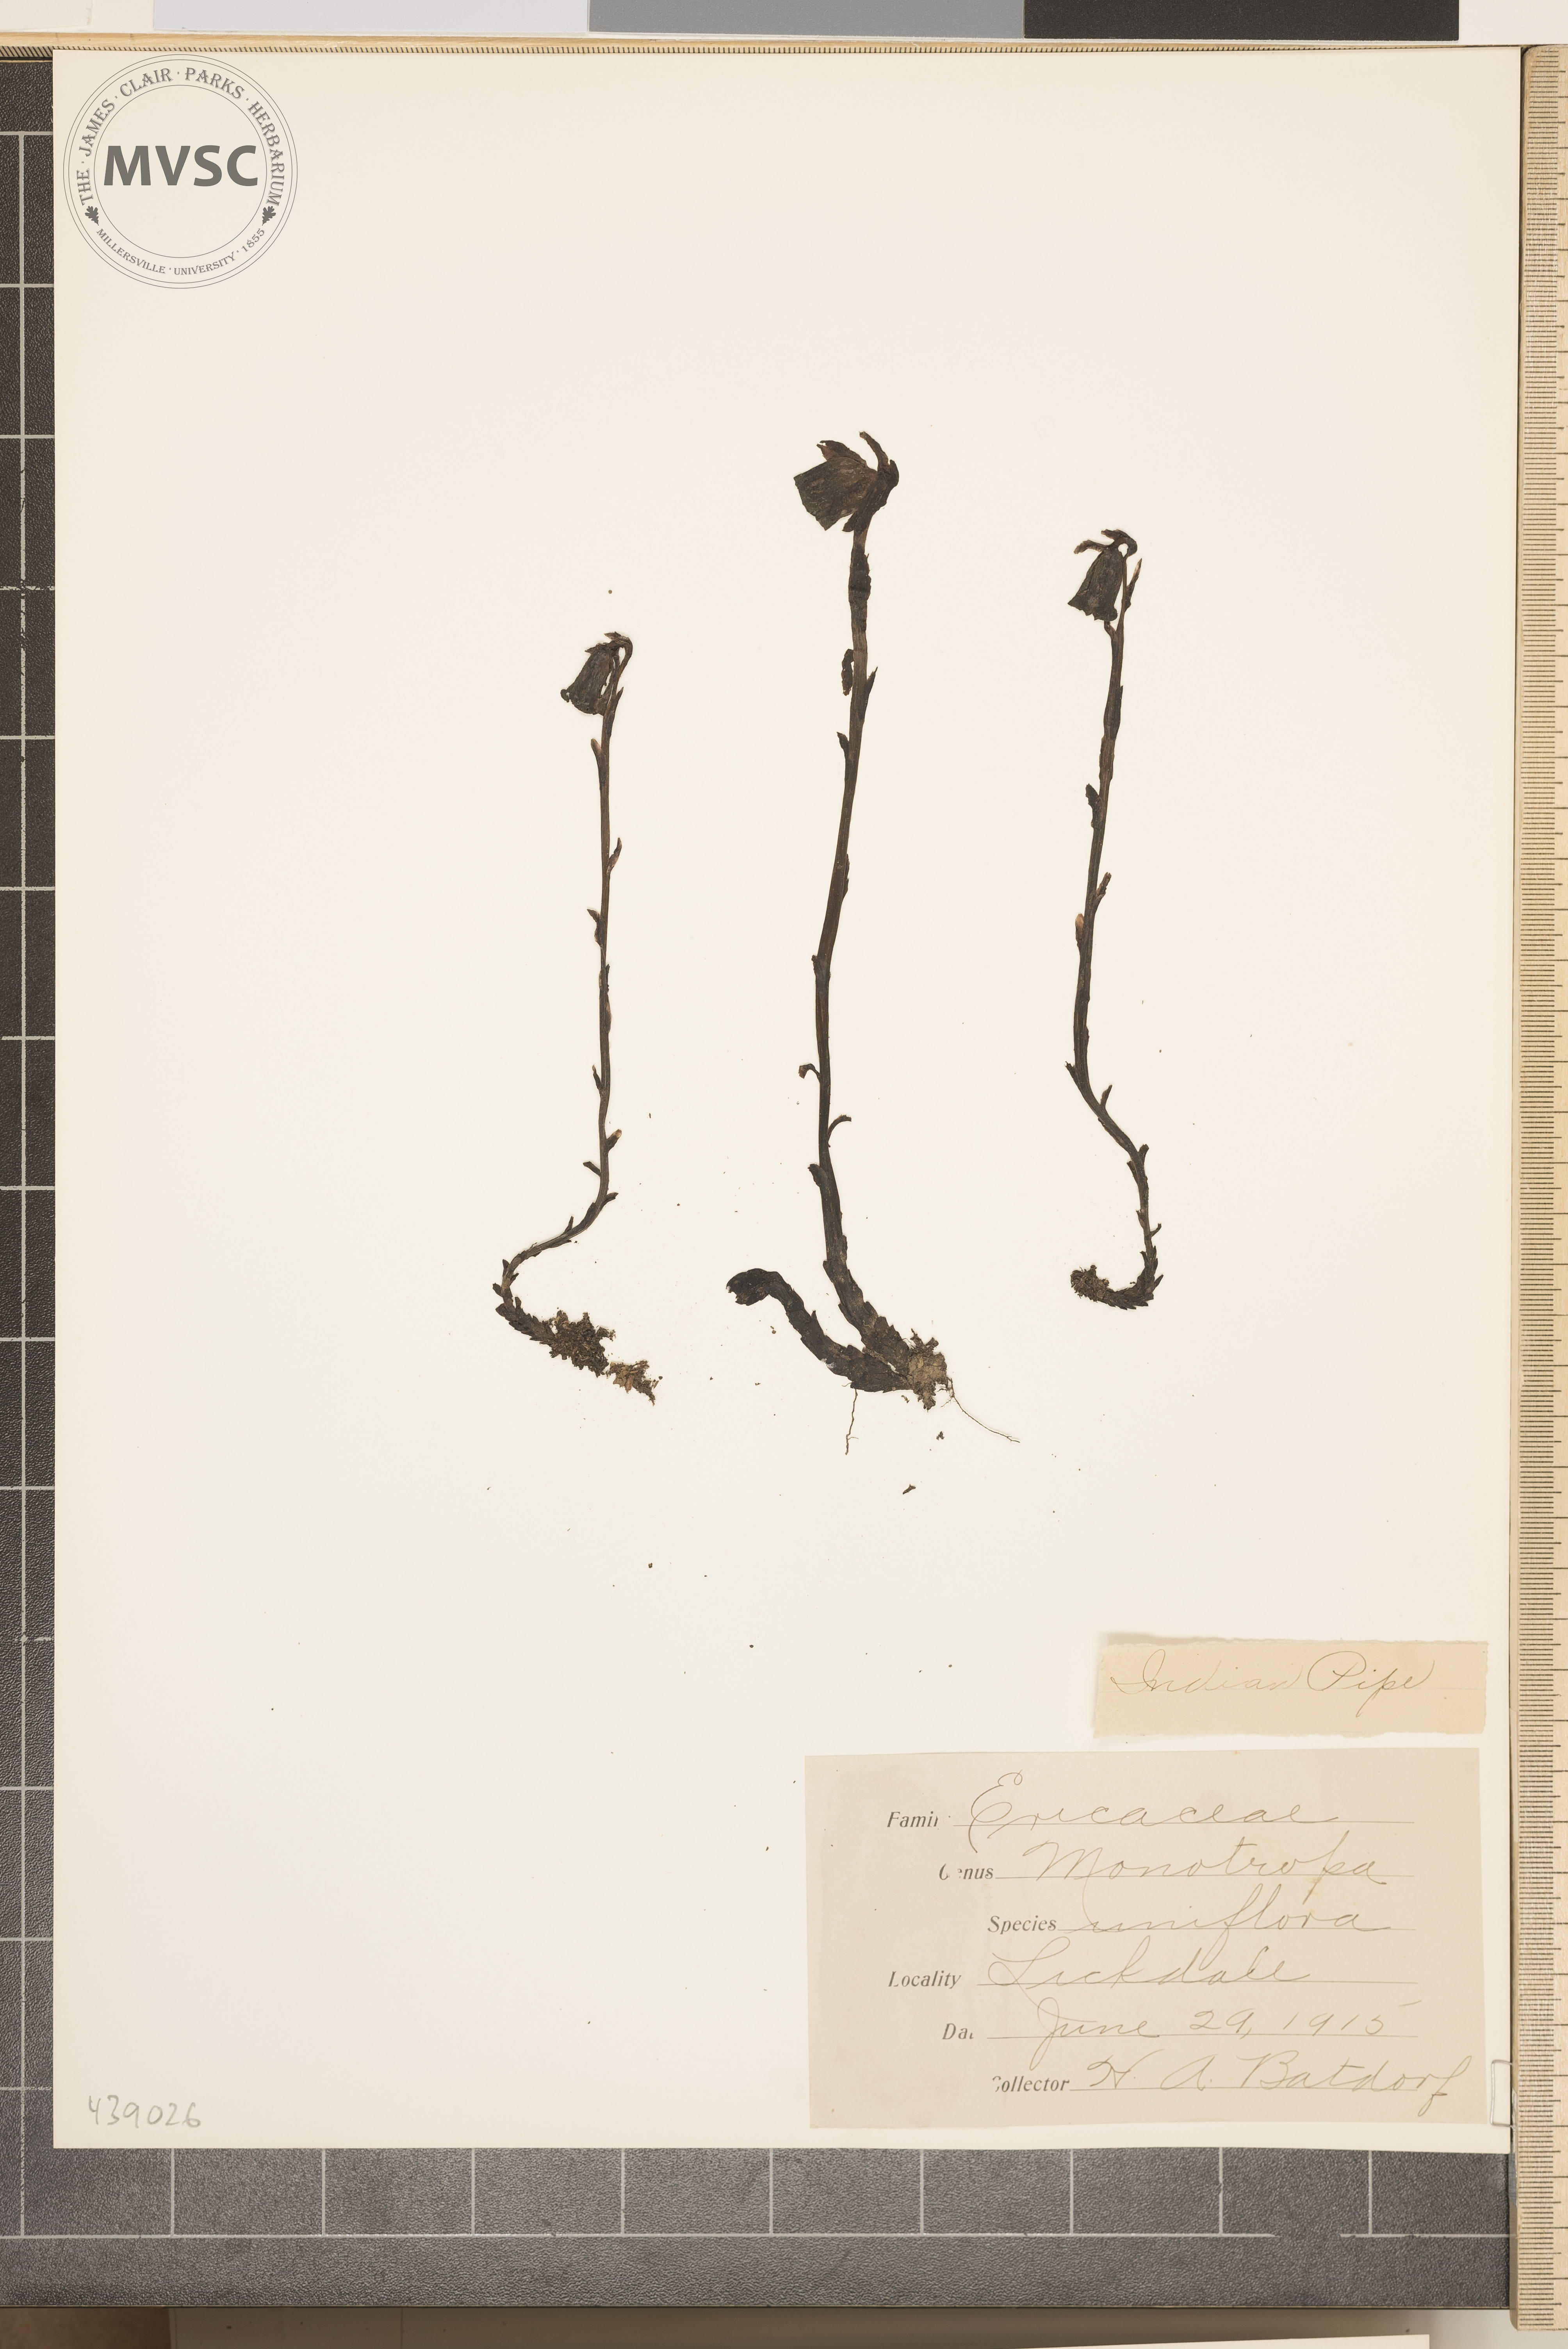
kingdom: Plantae
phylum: Tracheophyta
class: Magnoliopsida
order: Ericales
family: Ericaceae
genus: Monotropa
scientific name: Monotropa uniflora
